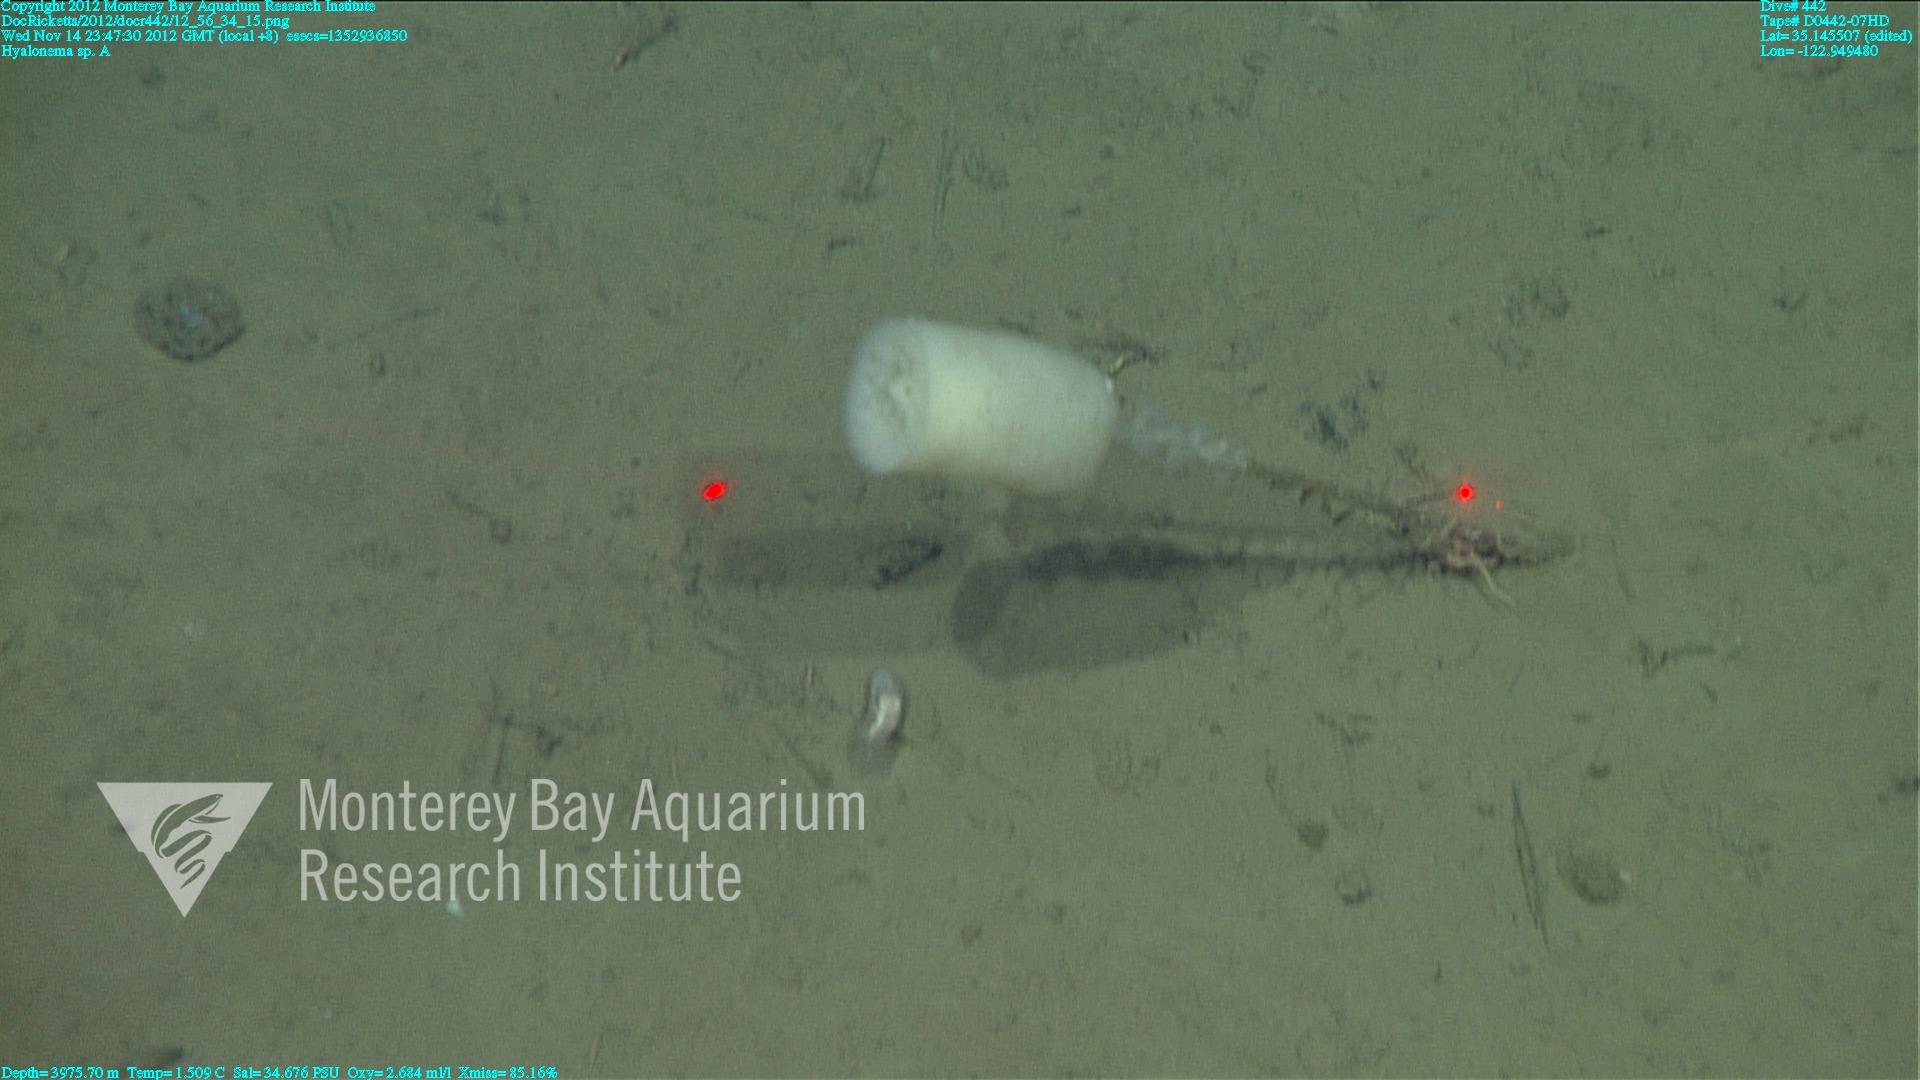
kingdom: Animalia
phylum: Porifera
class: Hexactinellida
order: Amphidiscosida
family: Hyalonematidae
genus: Hyalonema
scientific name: Hyalonema
